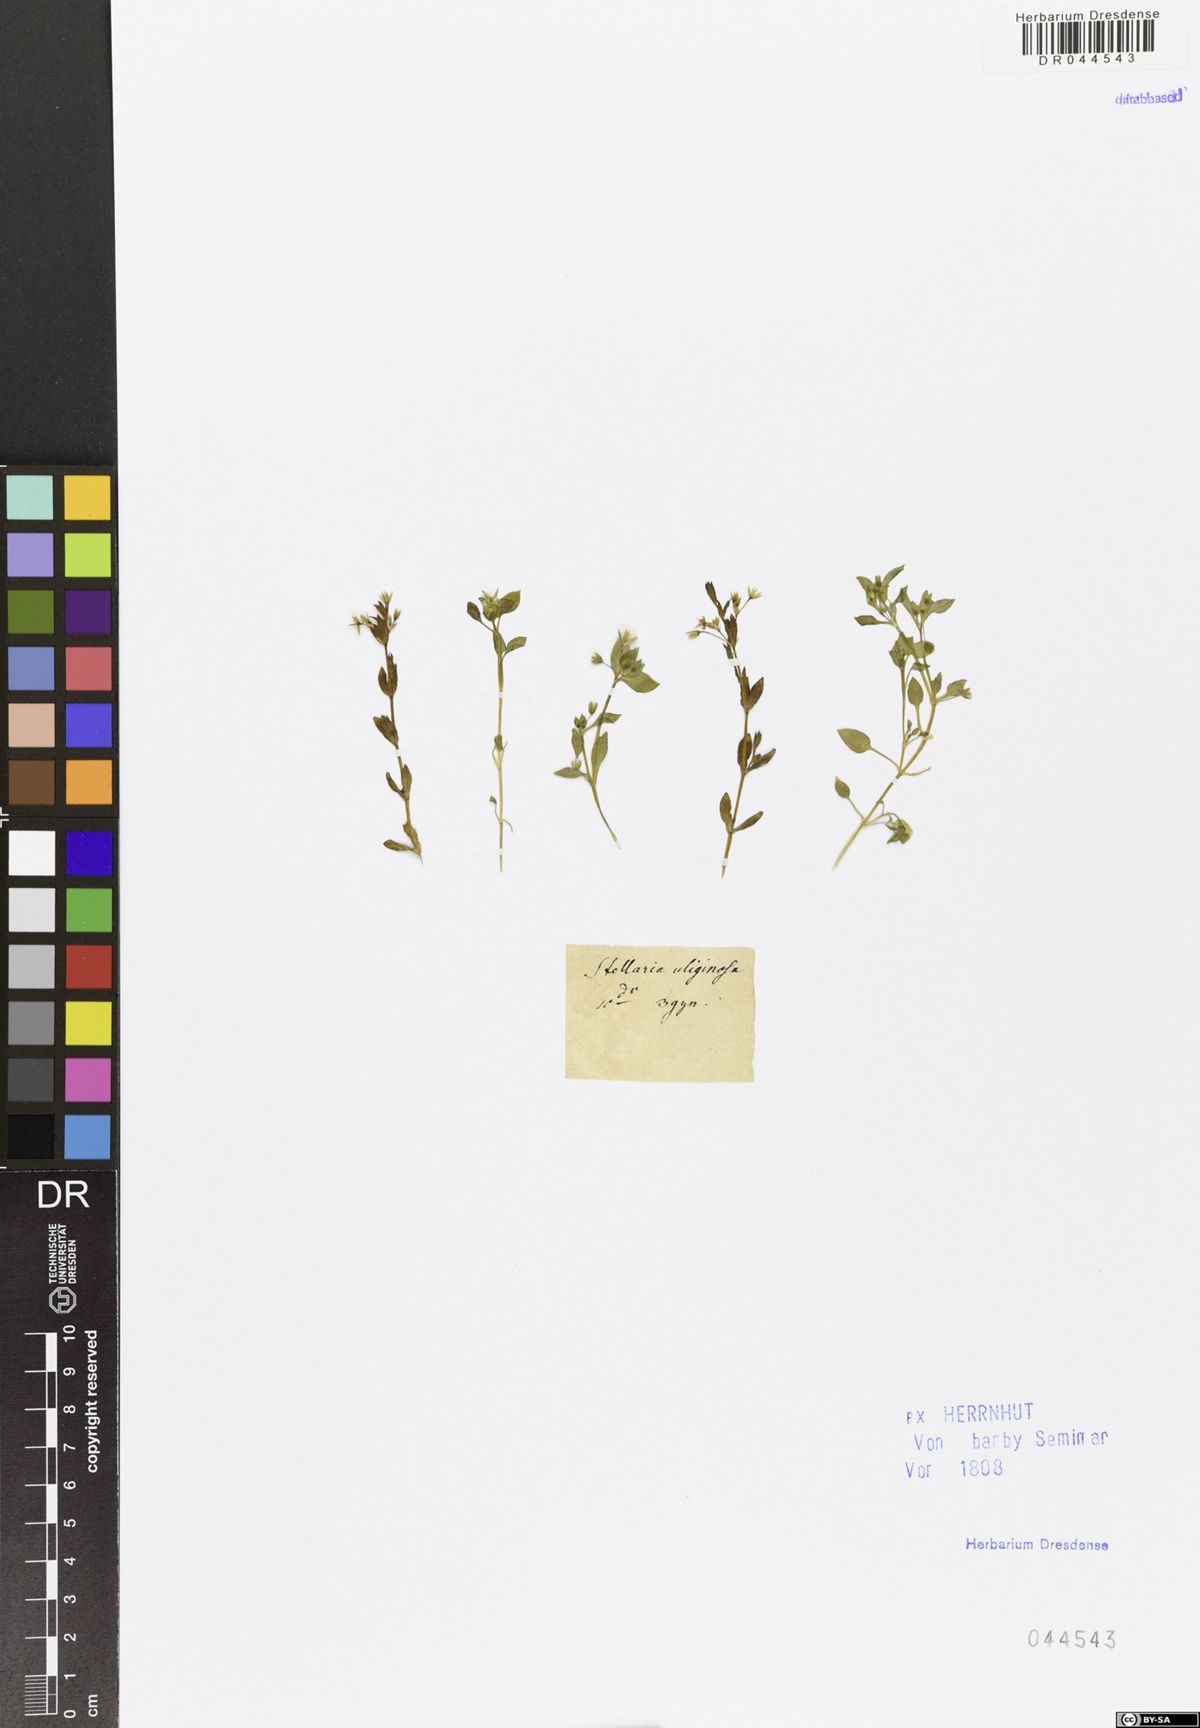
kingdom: Plantae
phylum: Tracheophyta
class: Magnoliopsida
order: Caryophyllales
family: Caryophyllaceae
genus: Stellaria
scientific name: Stellaria alsine
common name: Bog stitchwort
